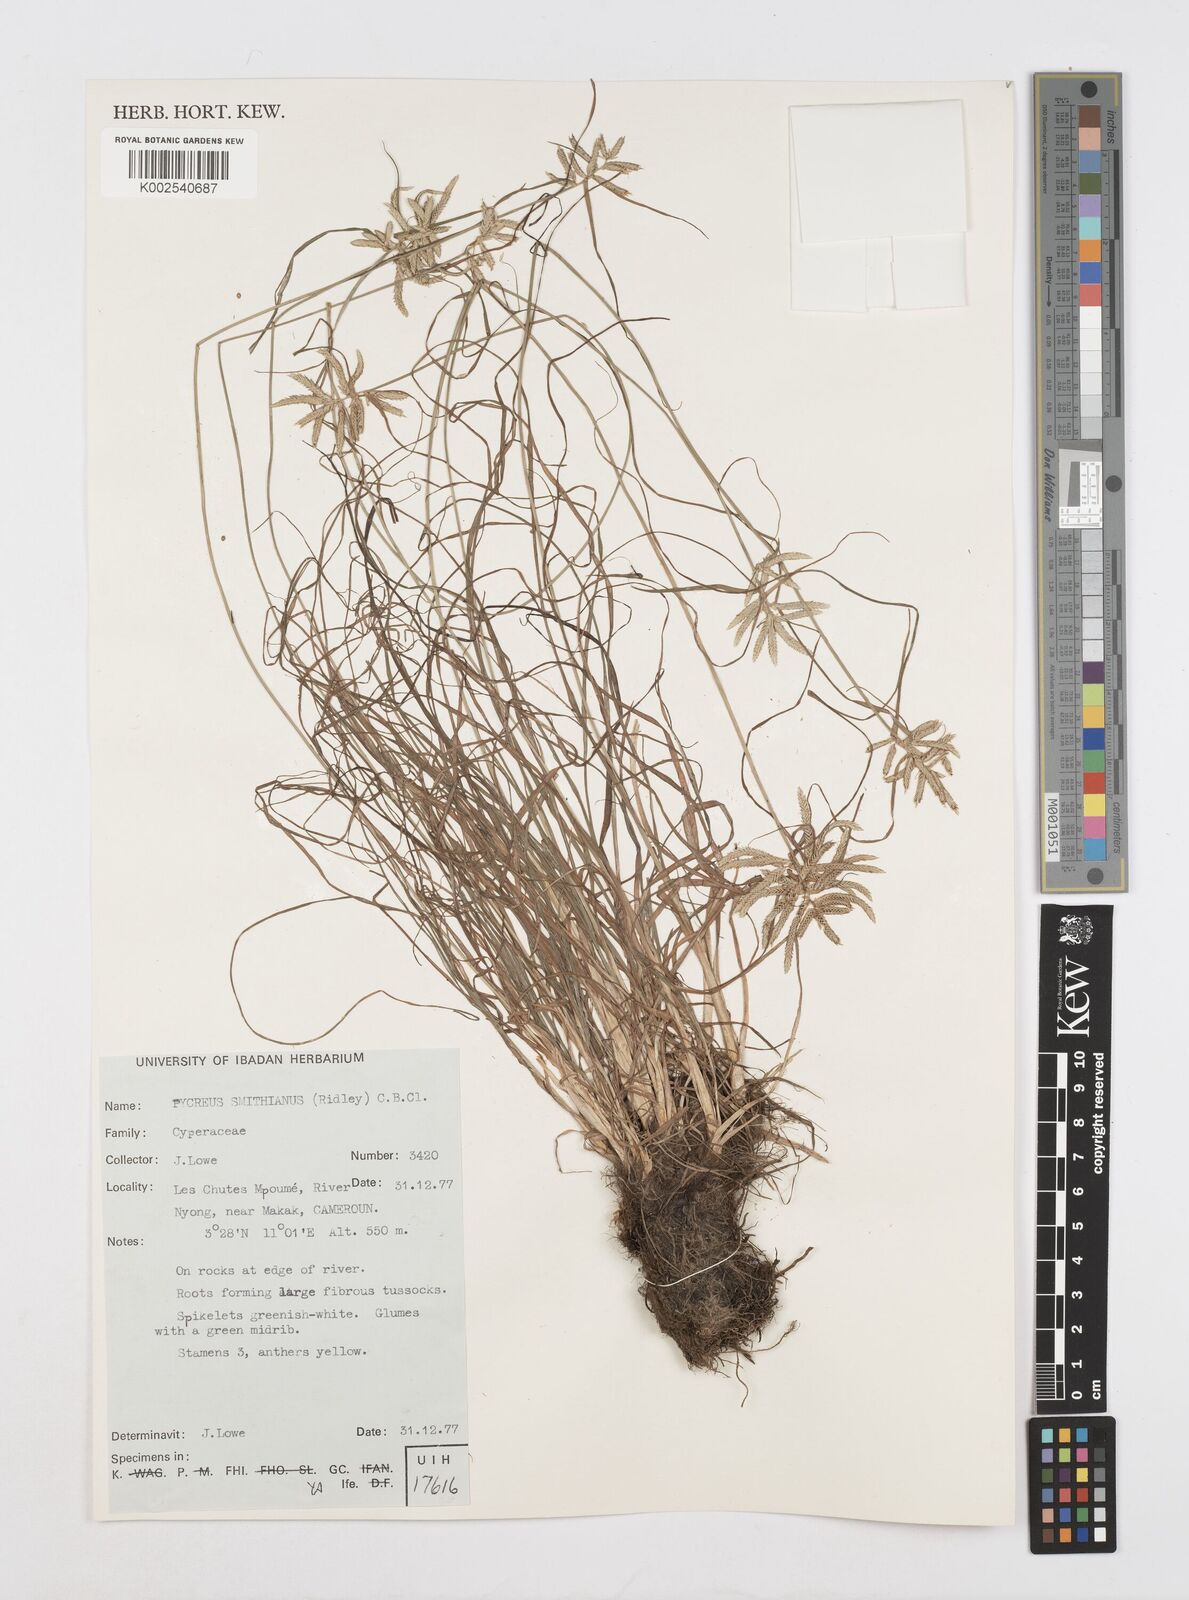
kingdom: Plantae
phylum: Tracheophyta
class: Liliopsida
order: Poales
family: Cyperaceae
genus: Cyperus
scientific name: Cyperus smithianus
